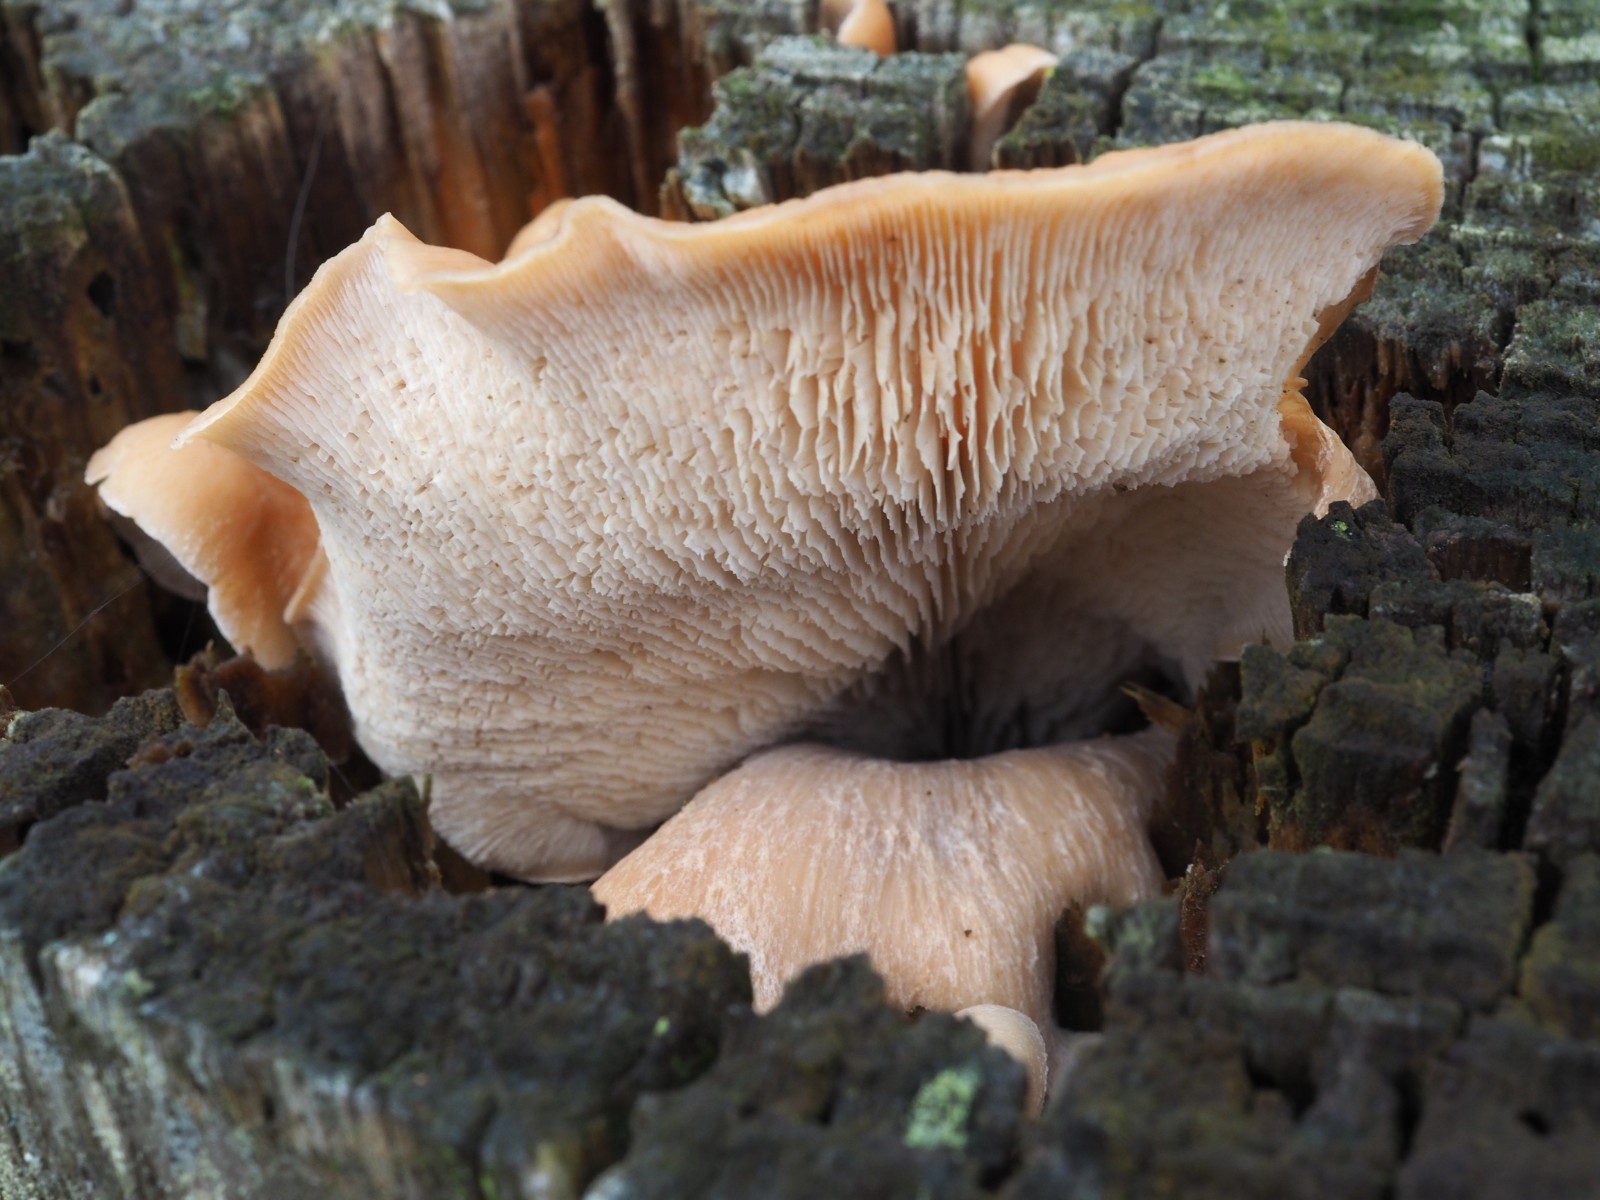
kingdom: Fungi
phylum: Basidiomycota
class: Agaricomycetes
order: Russulales
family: Auriscalpiaceae
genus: Lentinellus
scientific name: Lentinellus cochleatus
